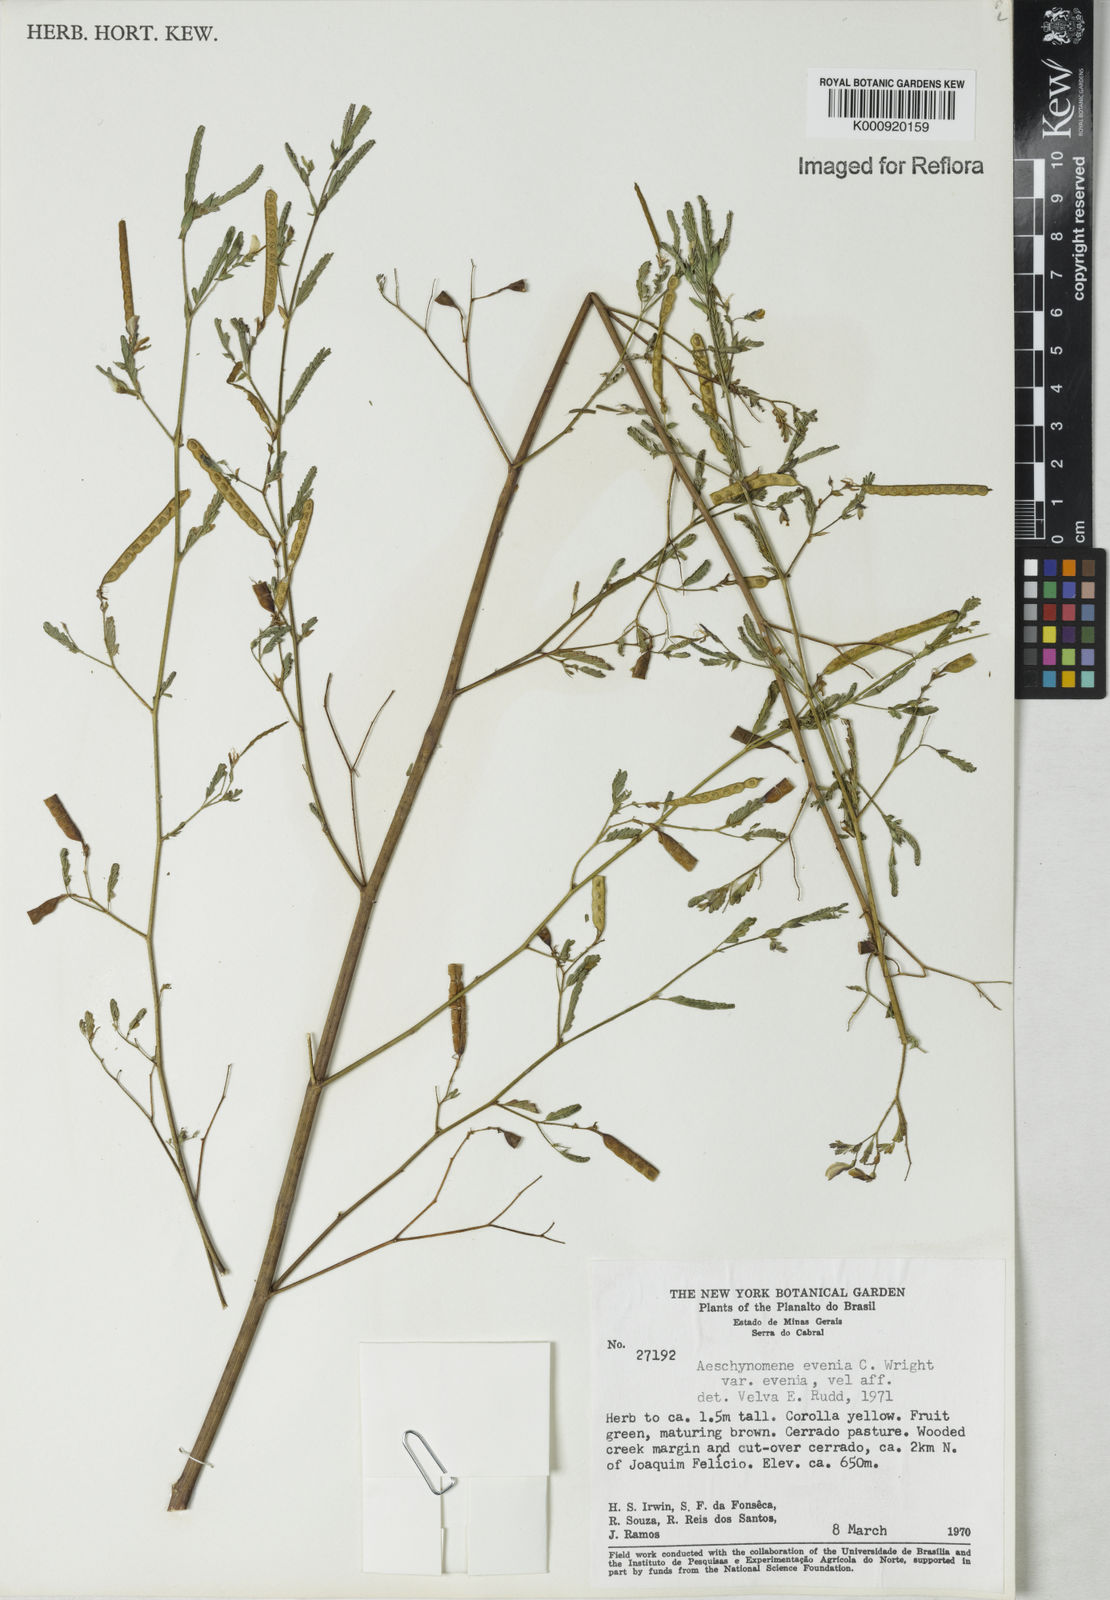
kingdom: Plantae
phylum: Tracheophyta
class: Magnoliopsida
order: Fabales
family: Fabaceae
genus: Aeschynomene
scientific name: Aeschynomene evenia
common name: Shrubby jointvetch
